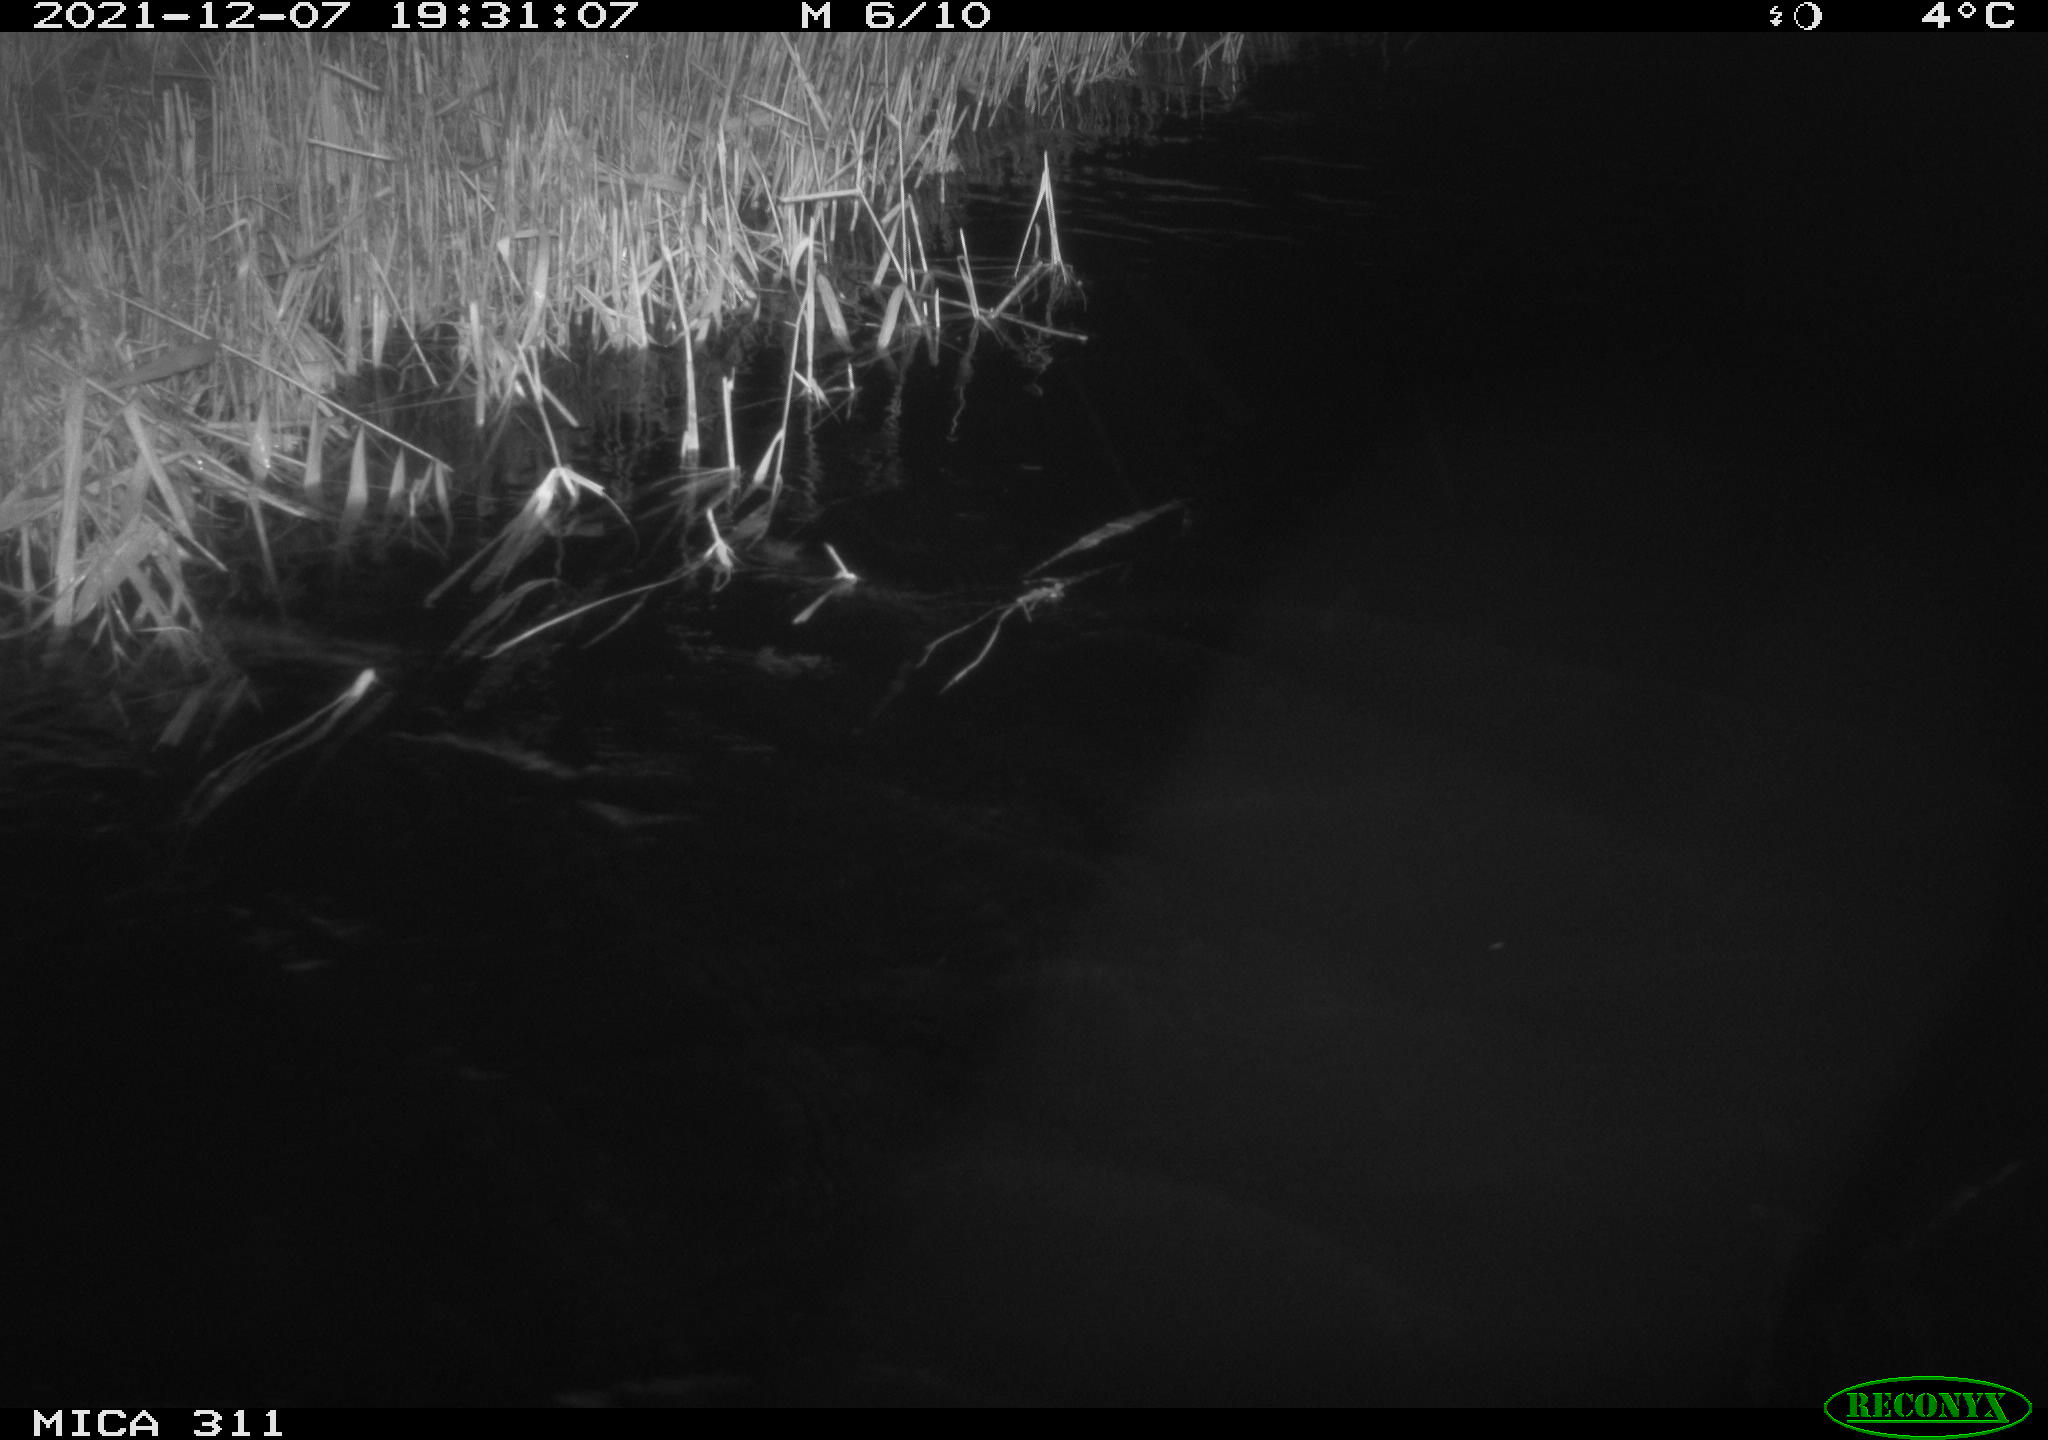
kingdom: Animalia
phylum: Chordata
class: Mammalia
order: Rodentia
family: Muridae
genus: Rattus
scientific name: Rattus norvegicus
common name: Brown rat
